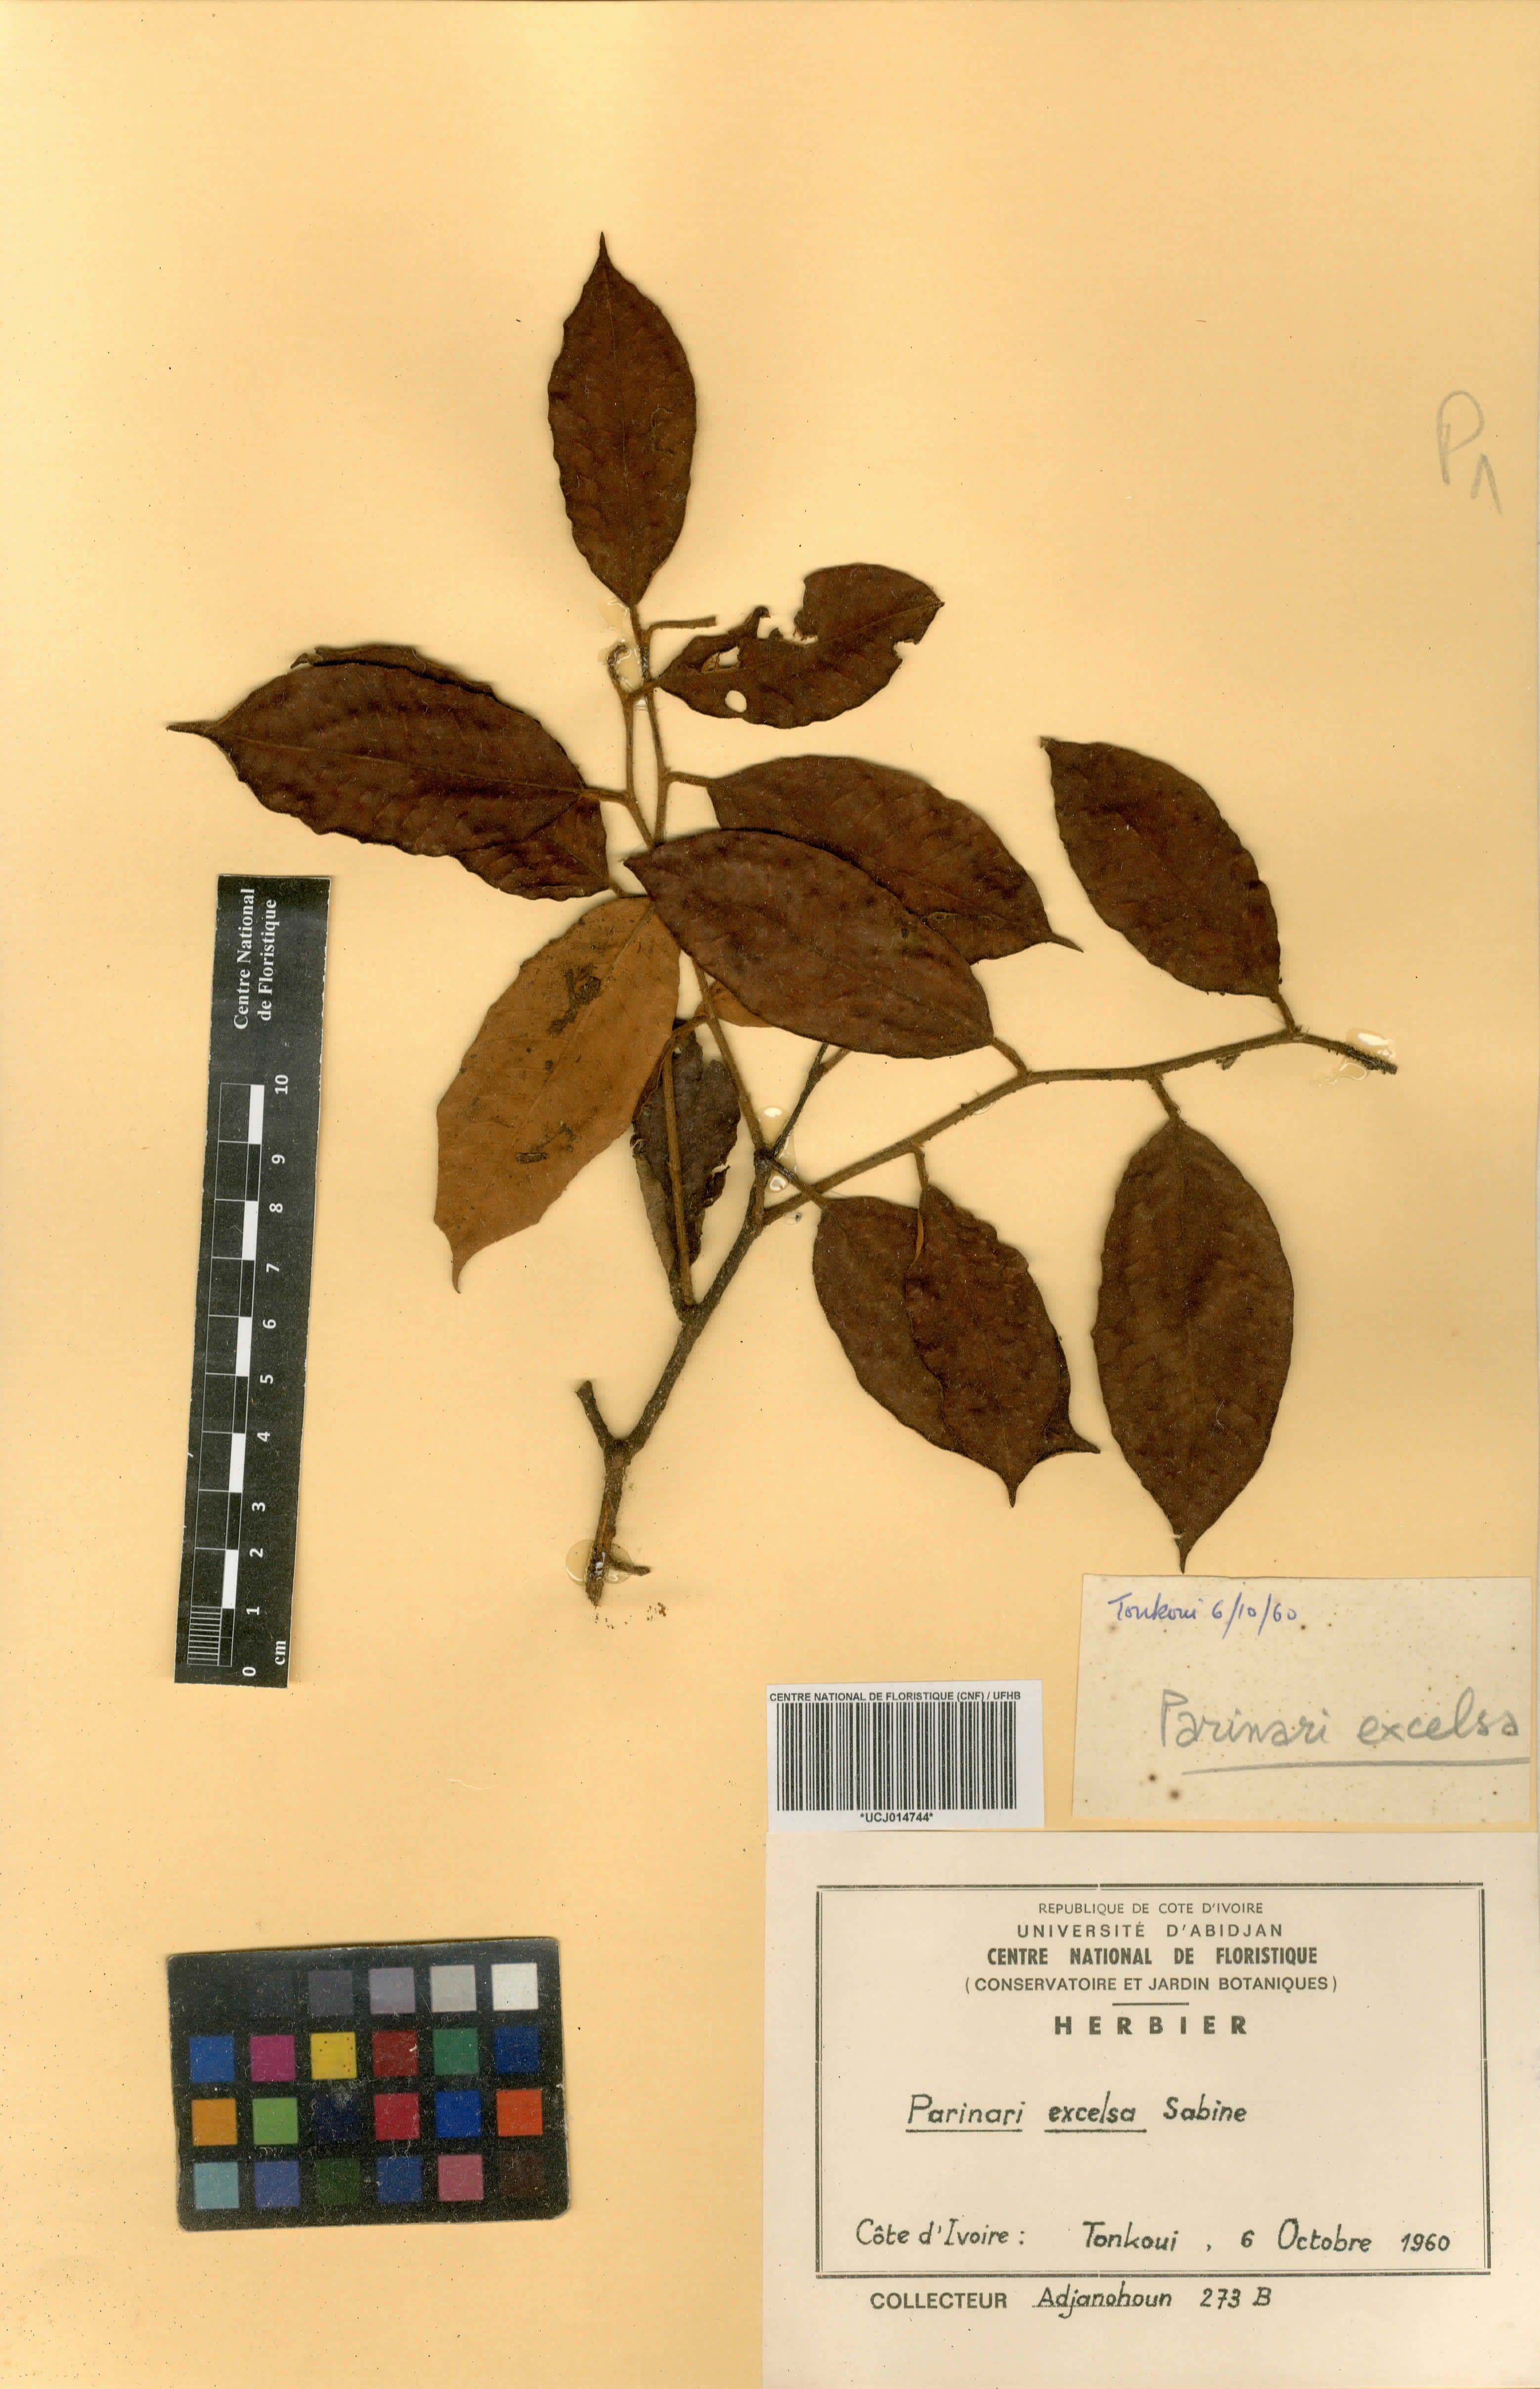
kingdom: Plantae
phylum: Tracheophyta
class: Magnoliopsida
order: Malpighiales
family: Chrysobalanaceae
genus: Parinari
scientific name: Parinari excelsa
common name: Guinea-plum
